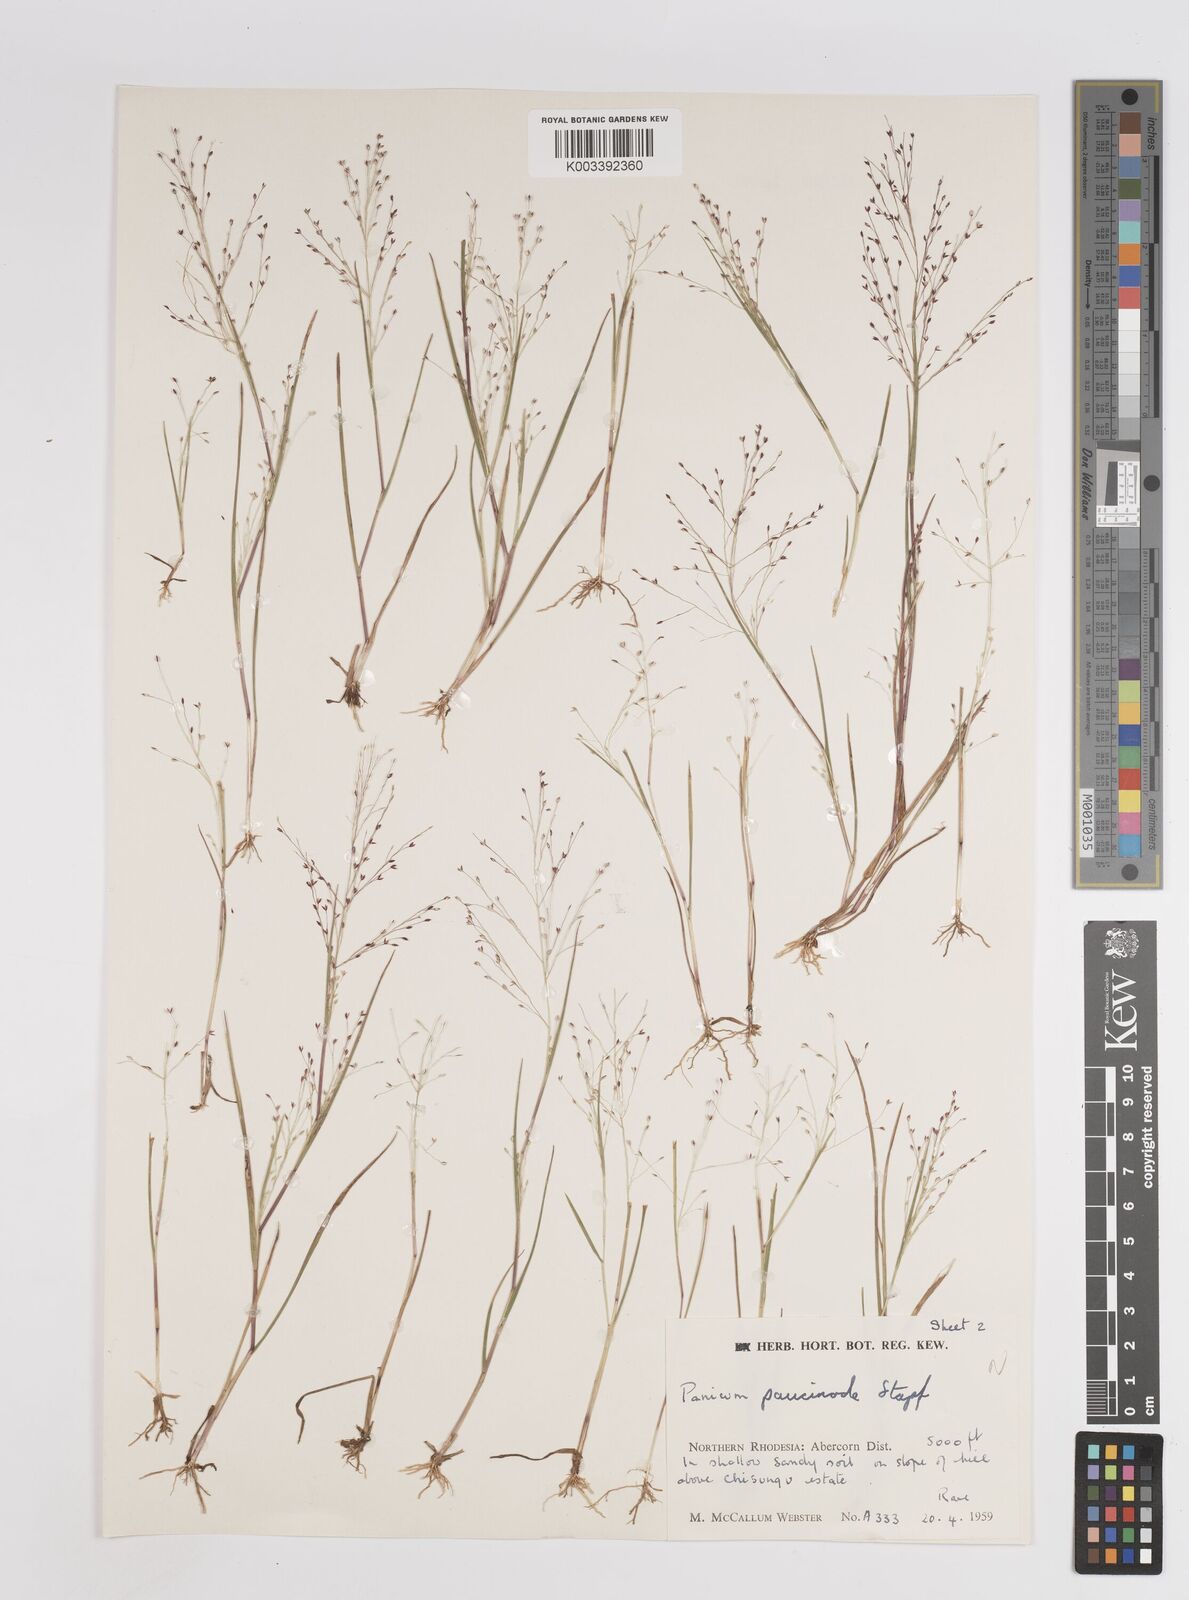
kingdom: Plantae
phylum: Tracheophyta
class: Liliopsida
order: Poales
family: Poaceae
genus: Panicum
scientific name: Panicum humile
